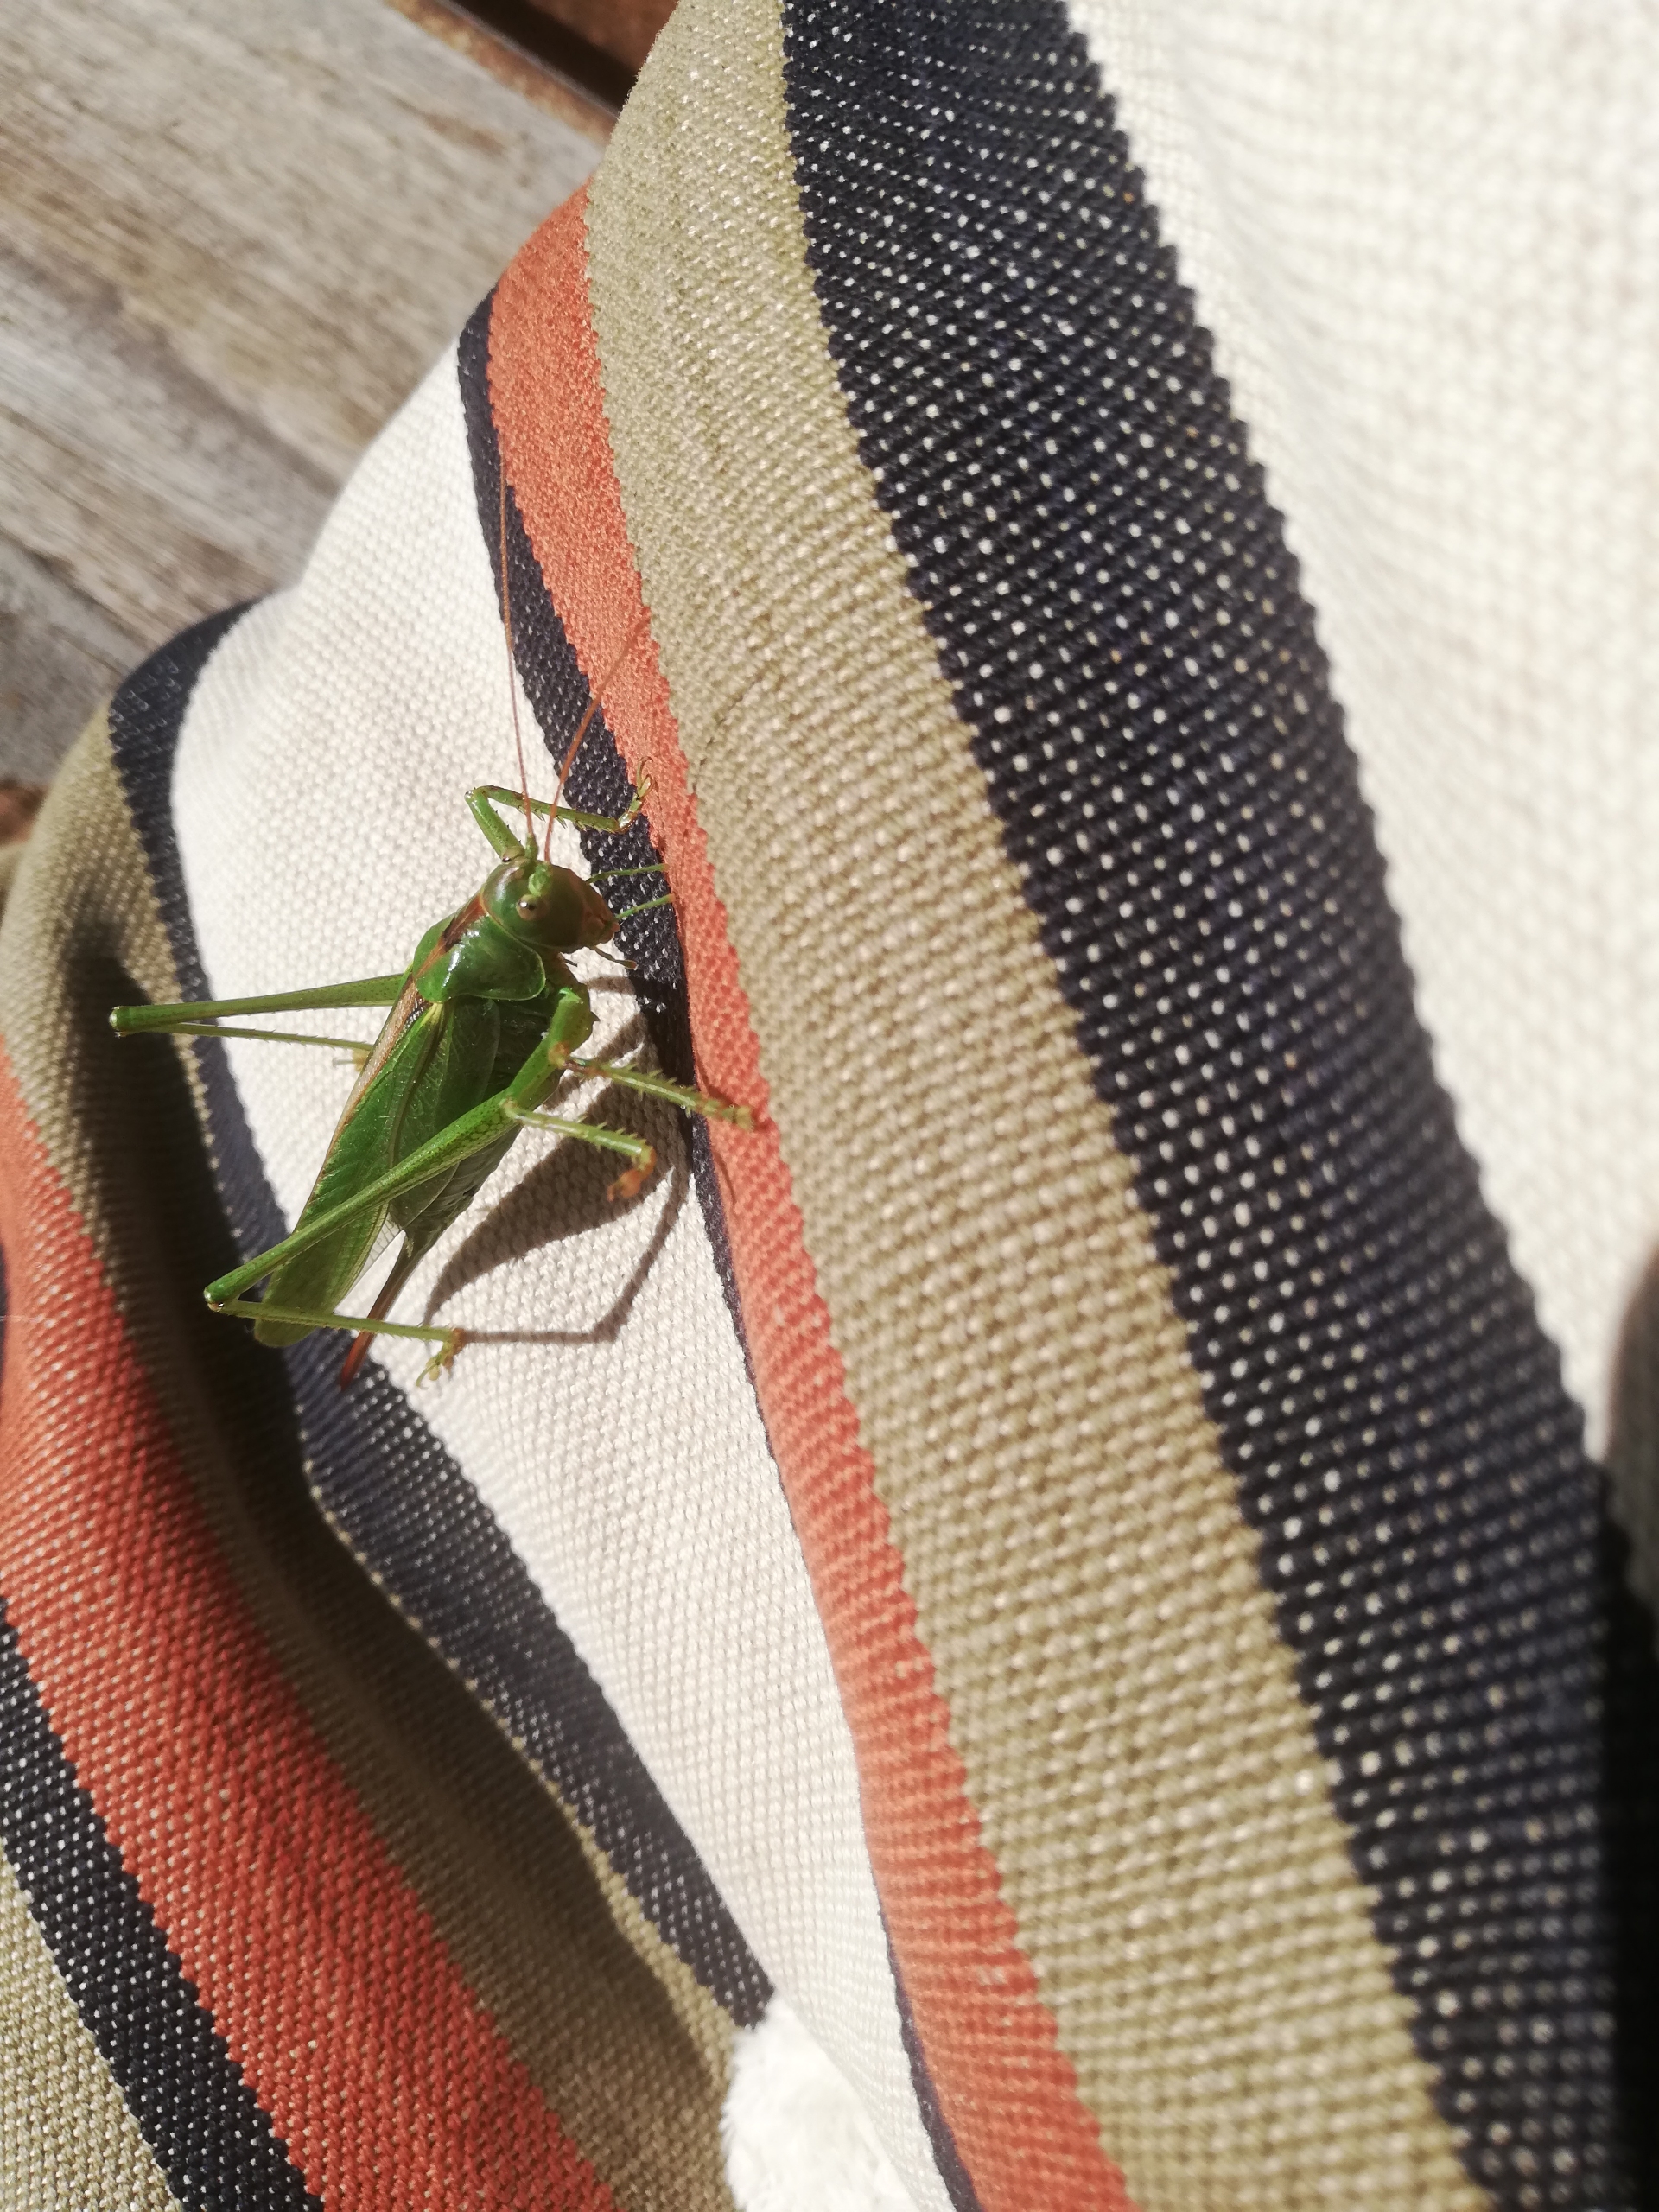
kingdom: Animalia
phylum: Arthropoda
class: Insecta
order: Orthoptera
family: Tettigoniidae
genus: Tettigonia
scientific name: Tettigonia viridissima
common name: Stor grøn løvgræshoppe
